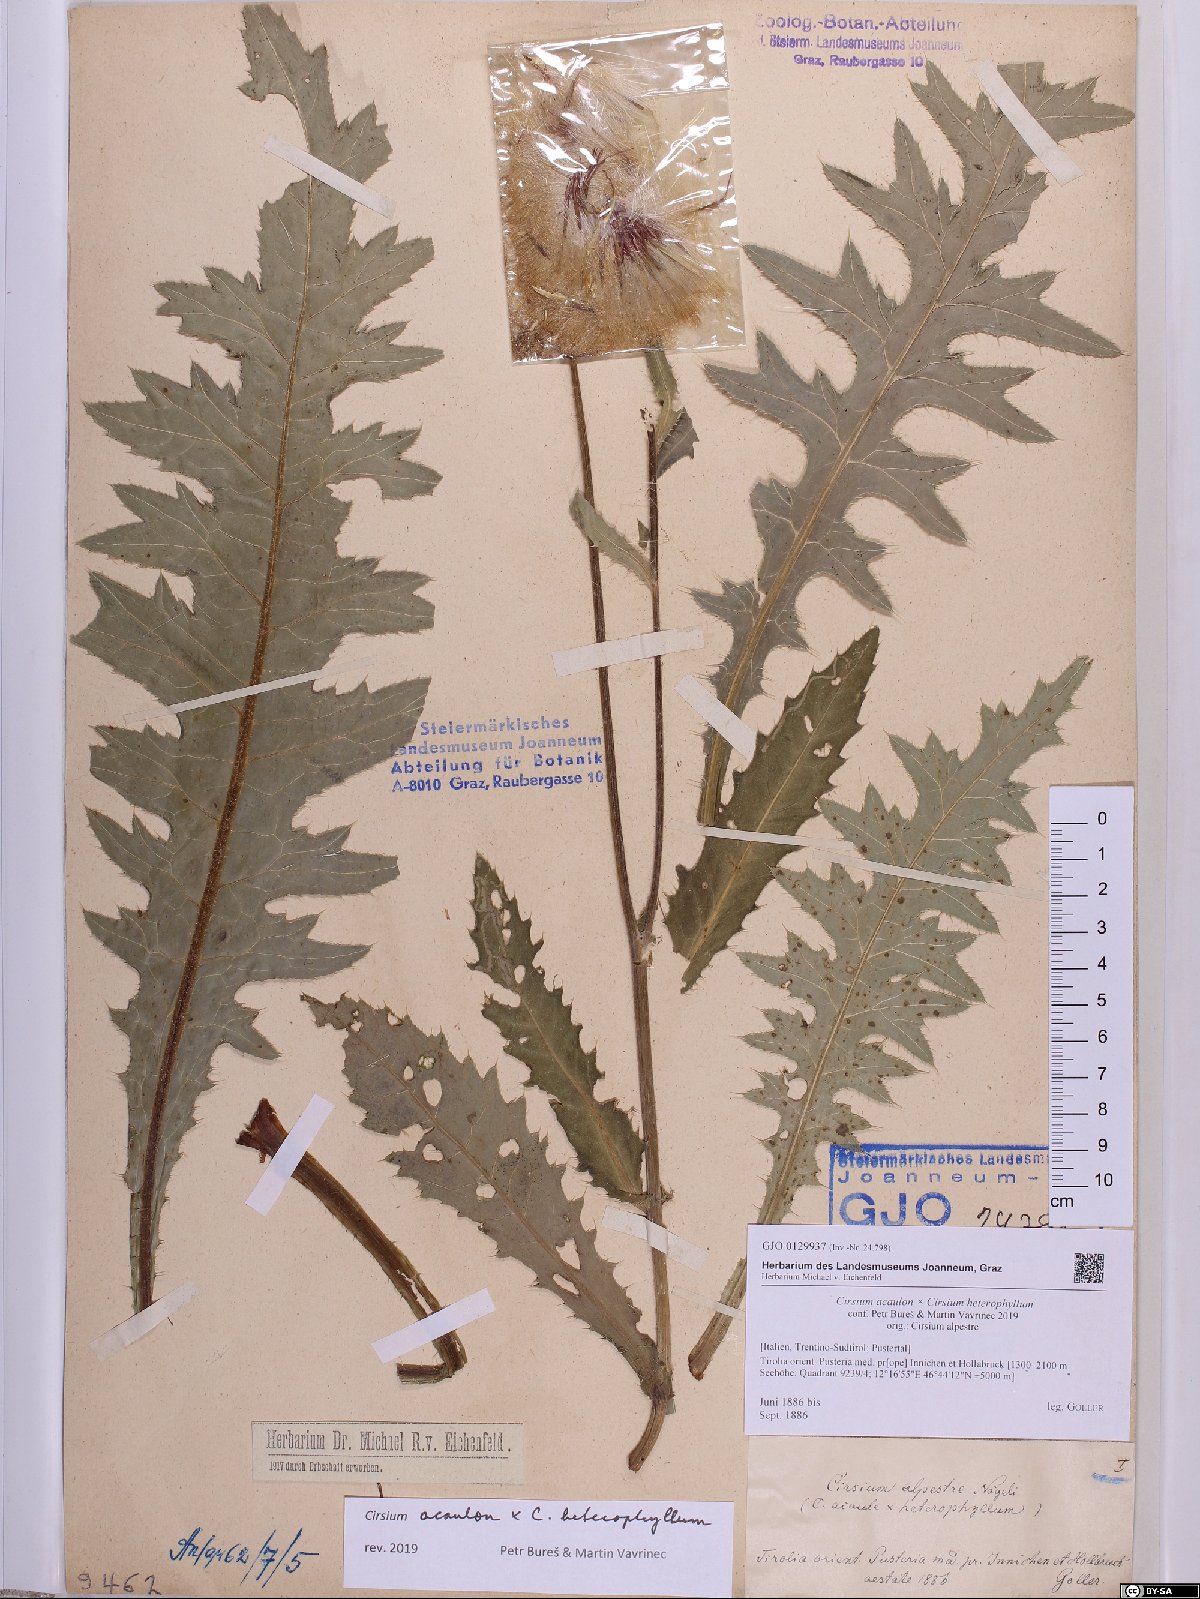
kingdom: Plantae
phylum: Tracheophyta
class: Magnoliopsida
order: Asterales
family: Asteraceae
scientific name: Asteraceae
